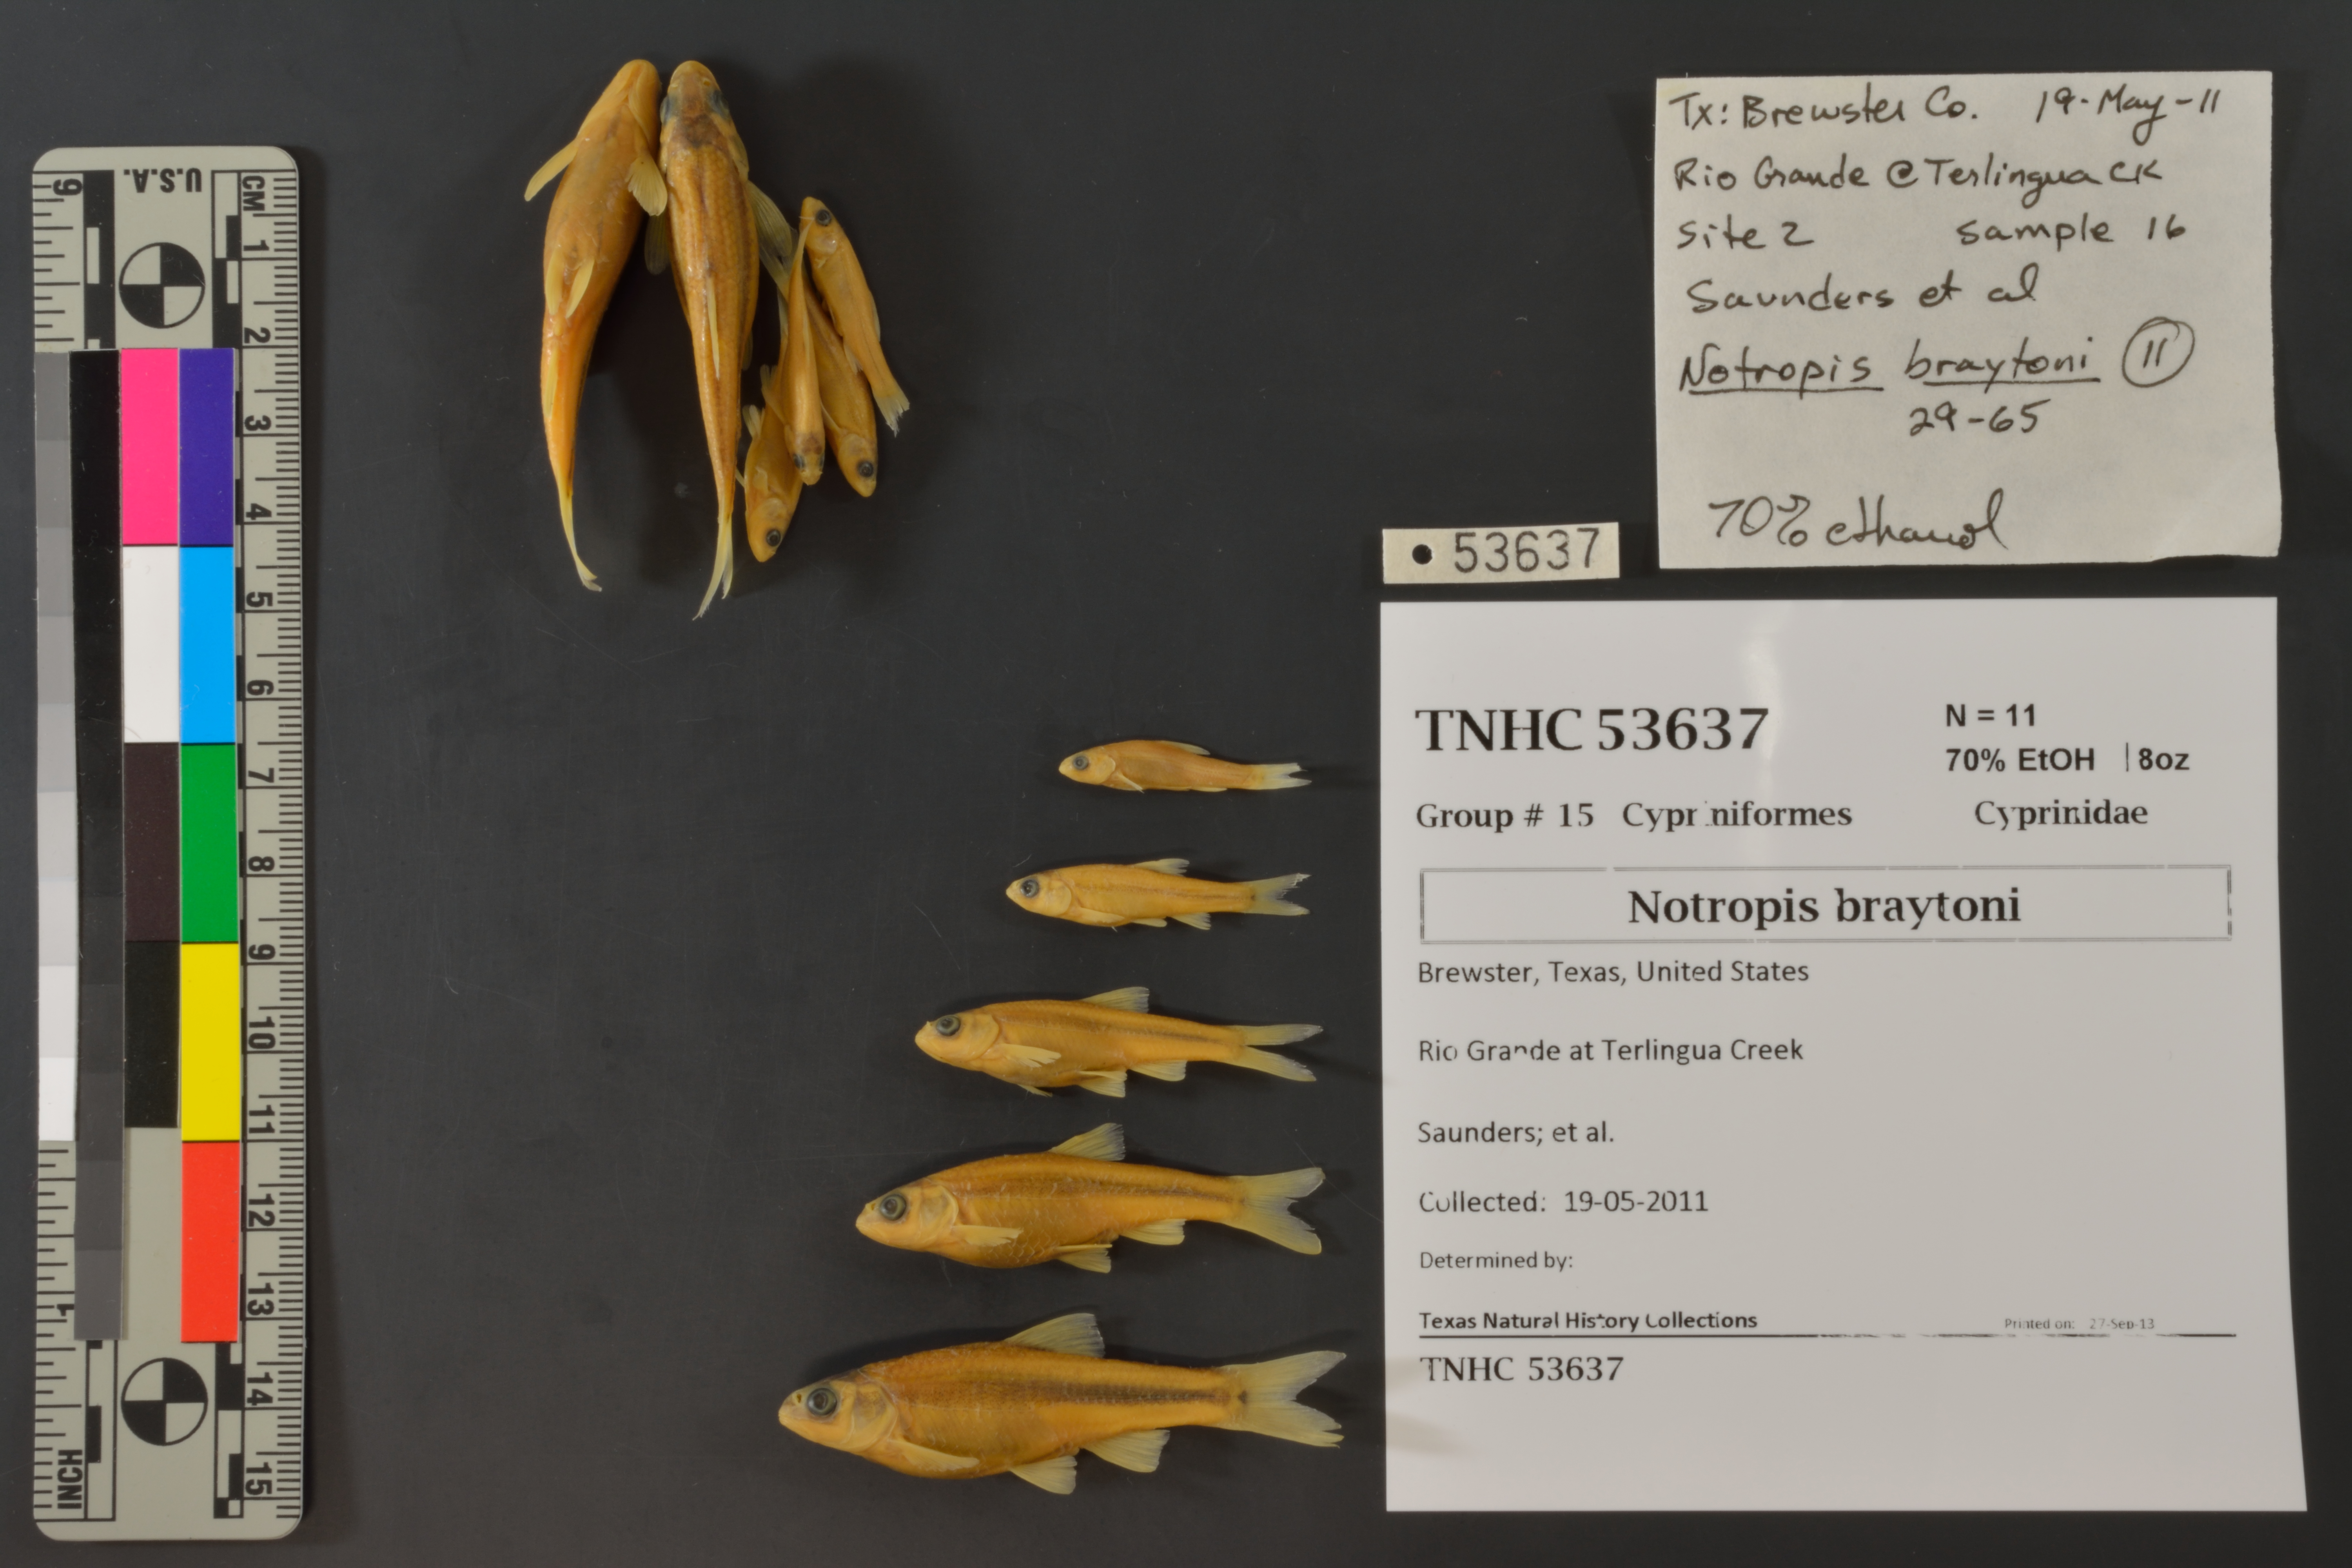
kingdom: Animalia
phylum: Chordata
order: Cypriniformes
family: Cyprinidae
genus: Notropis
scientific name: Notropis braytoni
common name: Tamaulipas shiner
